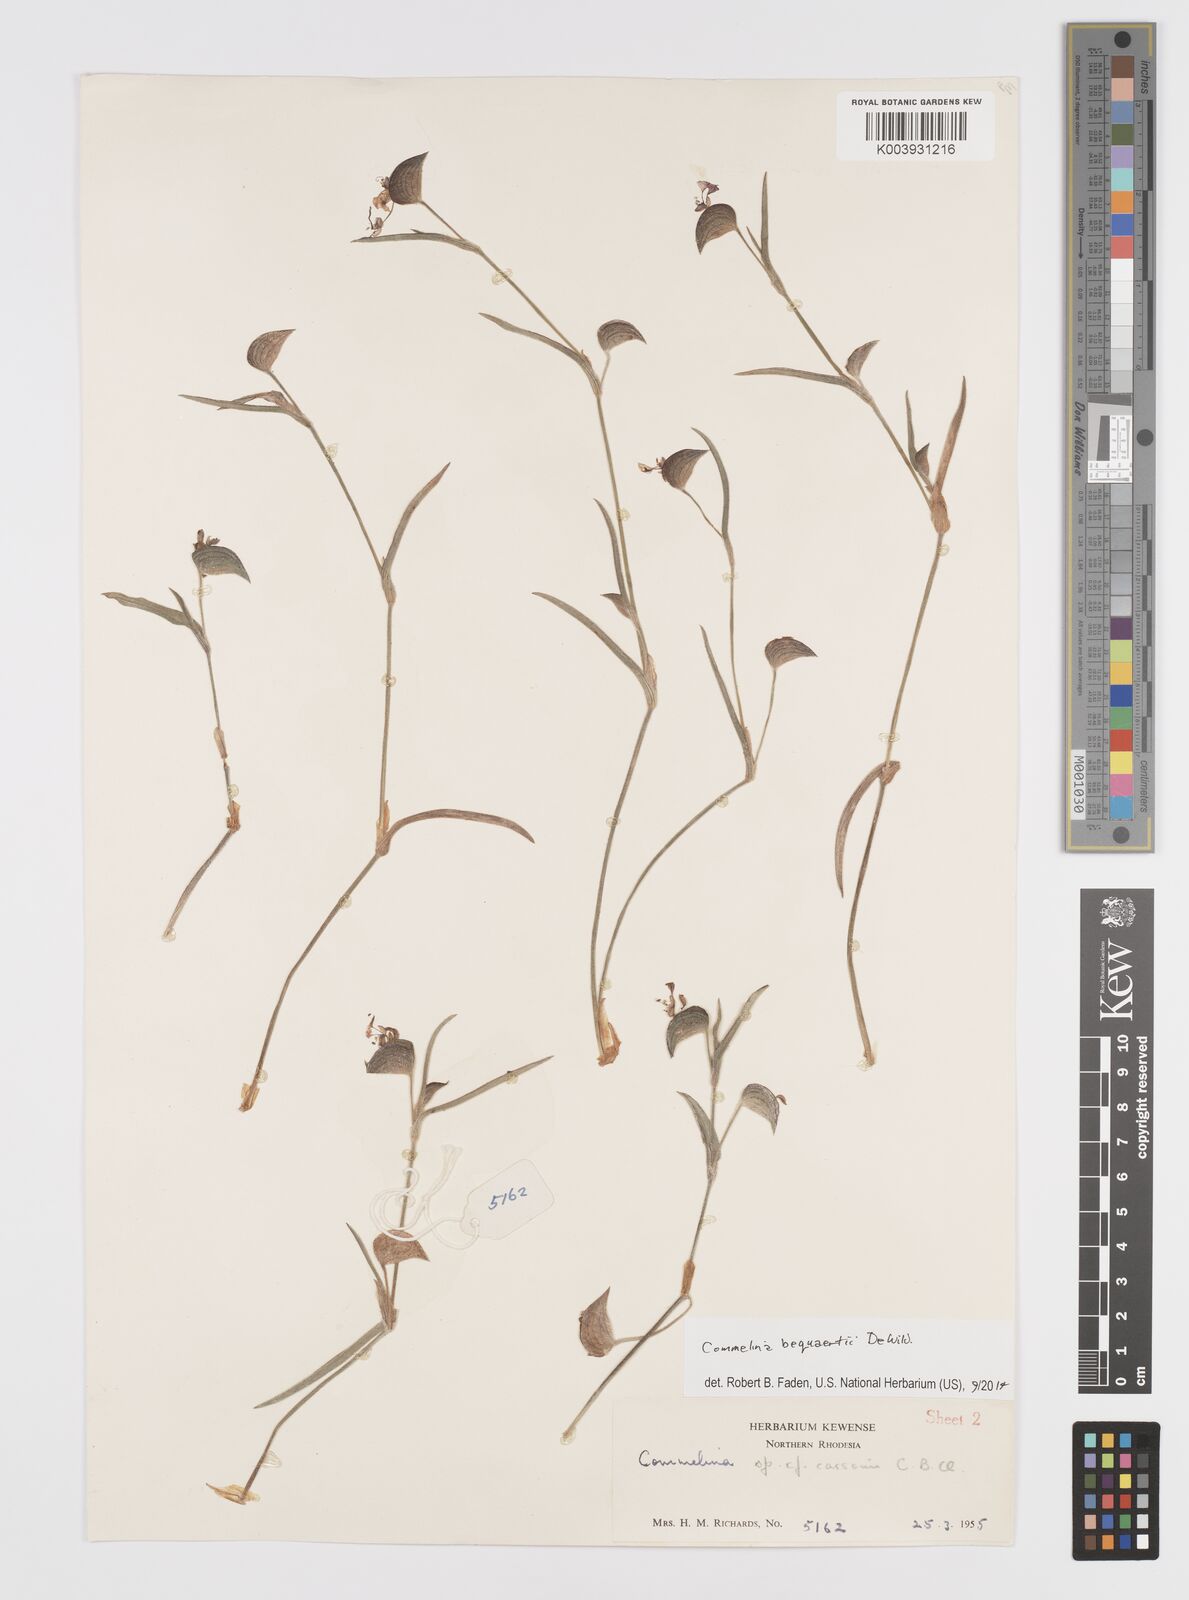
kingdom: Plantae
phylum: Tracheophyta
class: Liliopsida
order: Commelinales
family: Commelinaceae
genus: Commelina
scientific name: Commelina bequaertii
